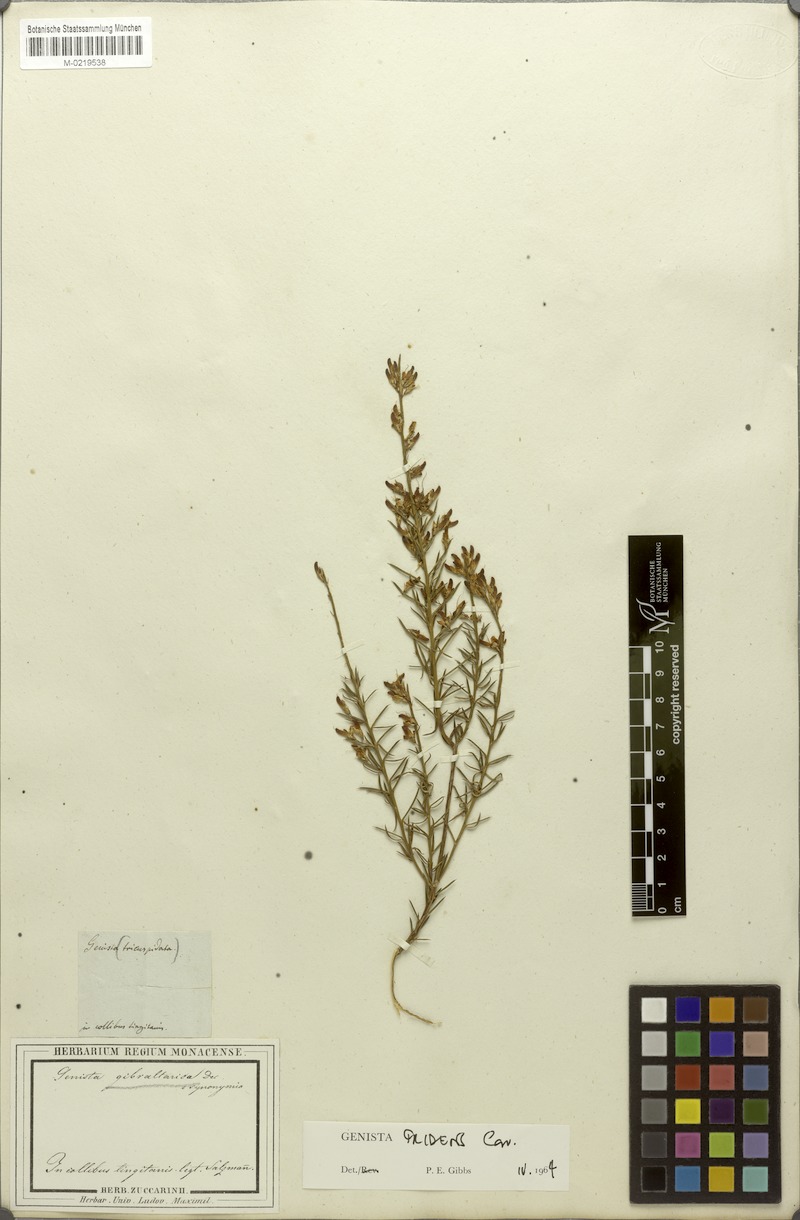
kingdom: Plantae
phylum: Tracheophyta
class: Magnoliopsida
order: Fabales
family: Fabaceae
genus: Genista
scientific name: Genista tridens
